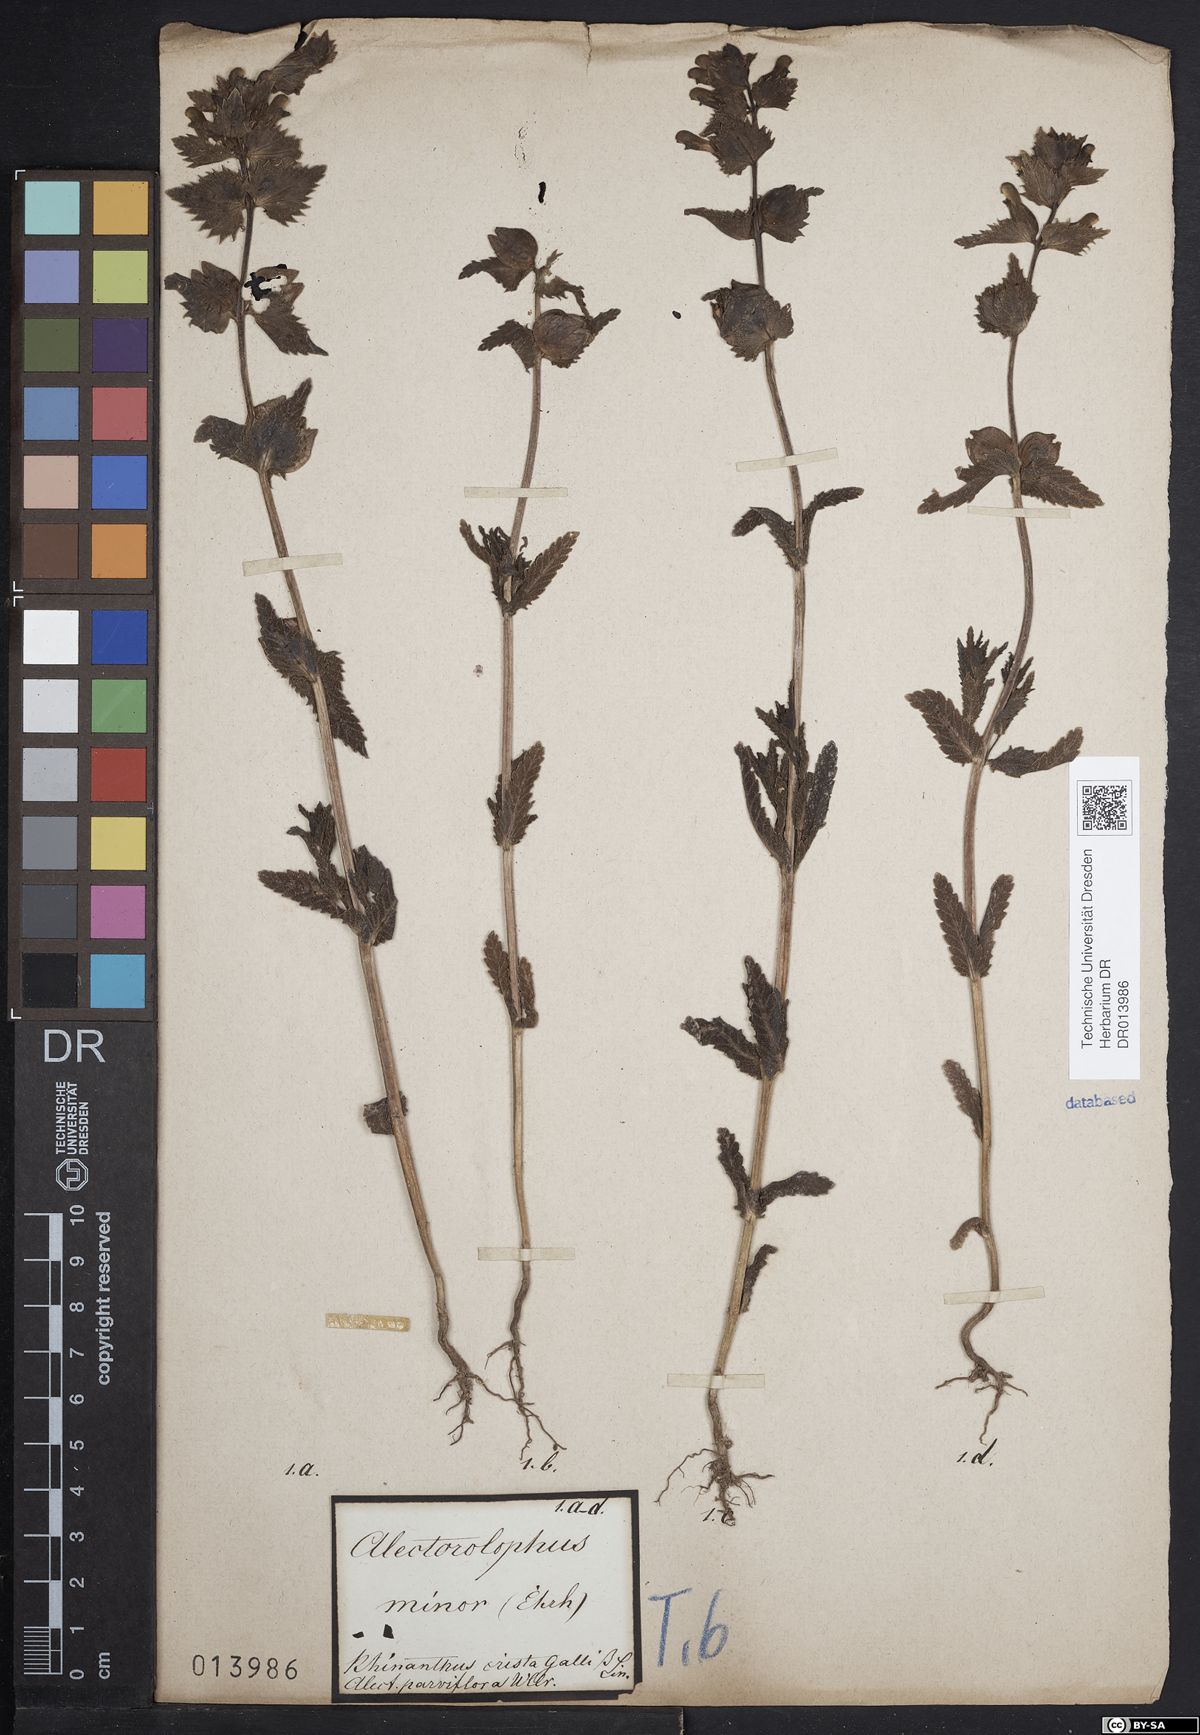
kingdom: Plantae
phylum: Tracheophyta
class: Magnoliopsida
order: Lamiales
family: Orobanchaceae
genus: Rhinanthus
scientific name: Rhinanthus minor
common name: Yellow-rattle
